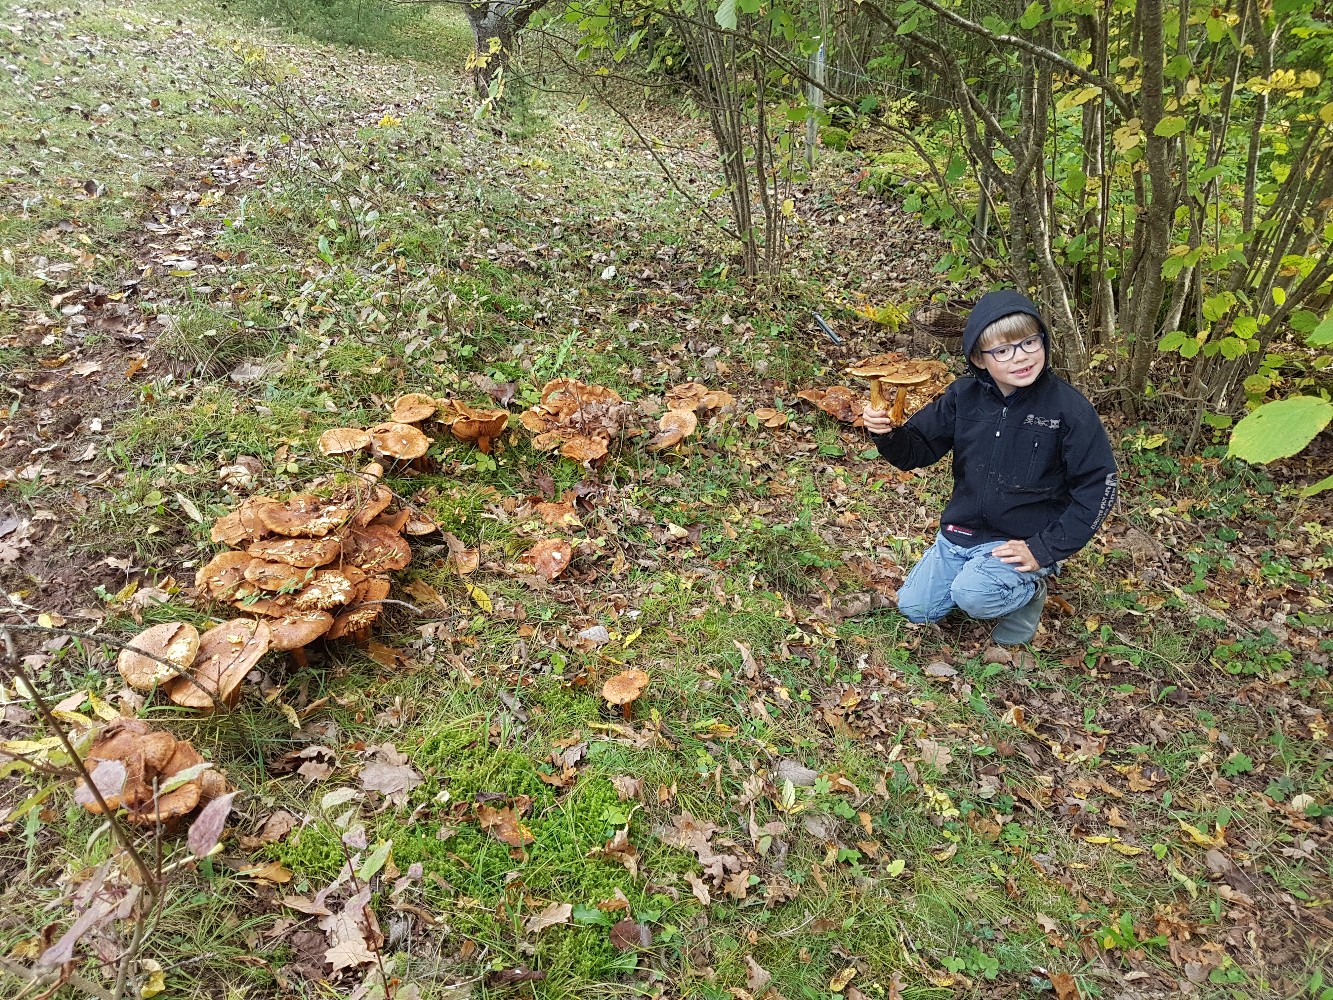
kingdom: Fungi
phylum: Basidiomycota
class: Agaricomycetes
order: Agaricales
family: Cortinariaceae
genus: Calonarius
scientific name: Calonarius quercilicis
